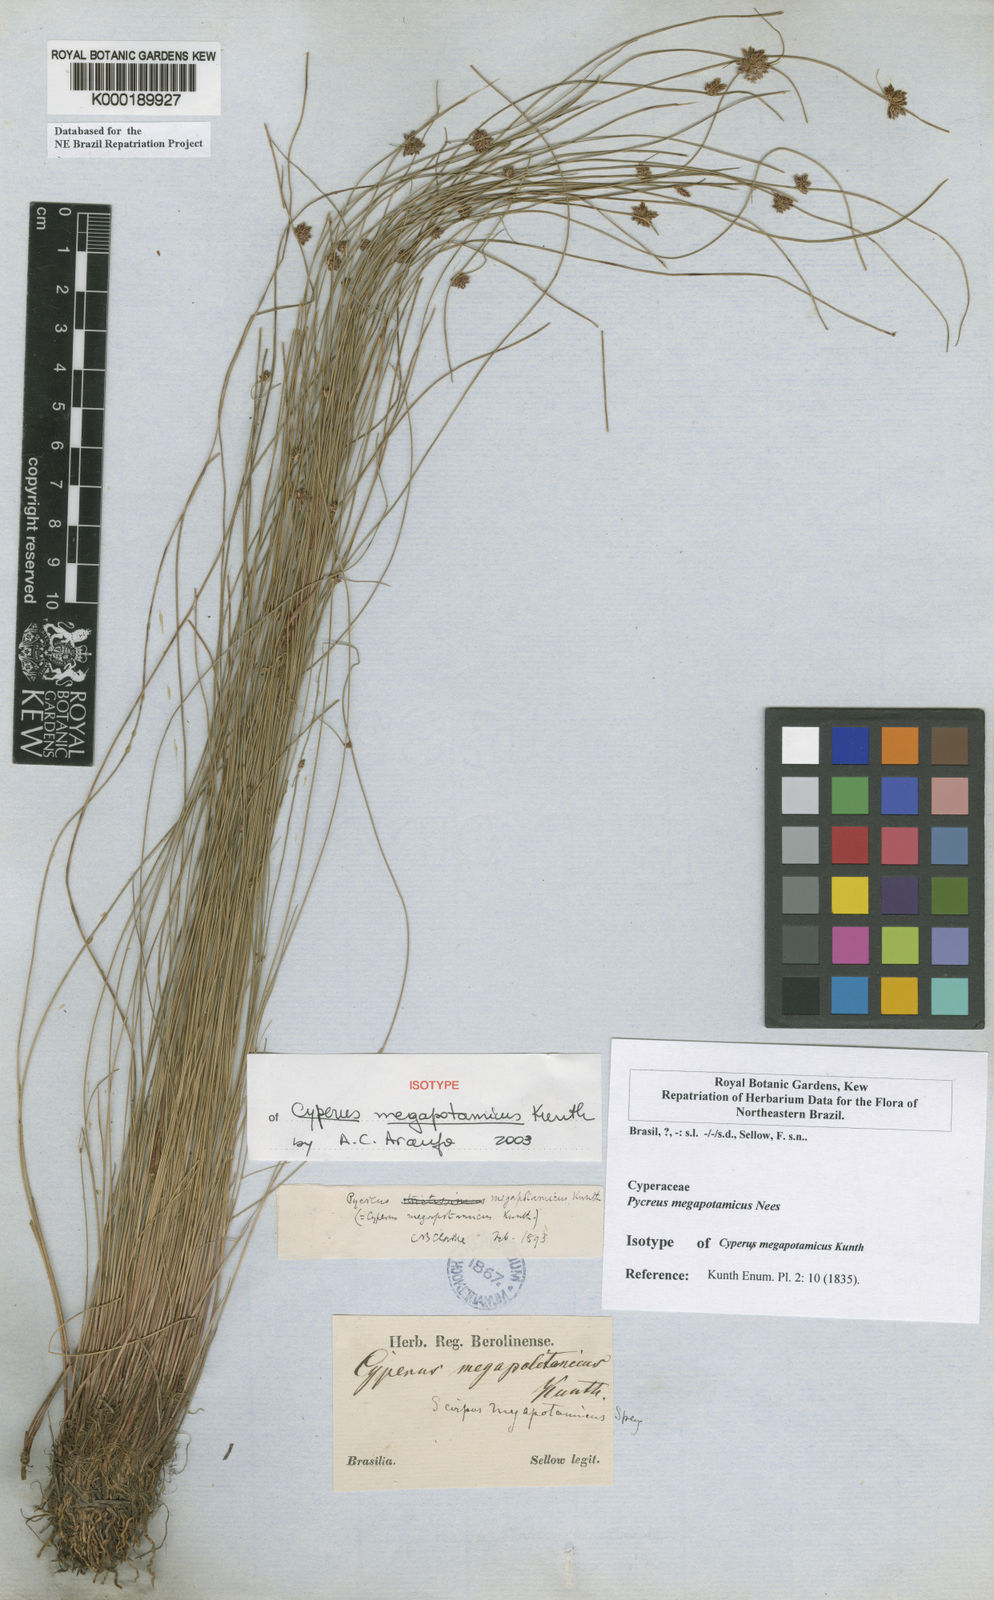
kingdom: Plantae
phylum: Tracheophyta
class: Liliopsida
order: Poales
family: Cyperaceae
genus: Cyperus
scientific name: Cyperus megapotamicus
